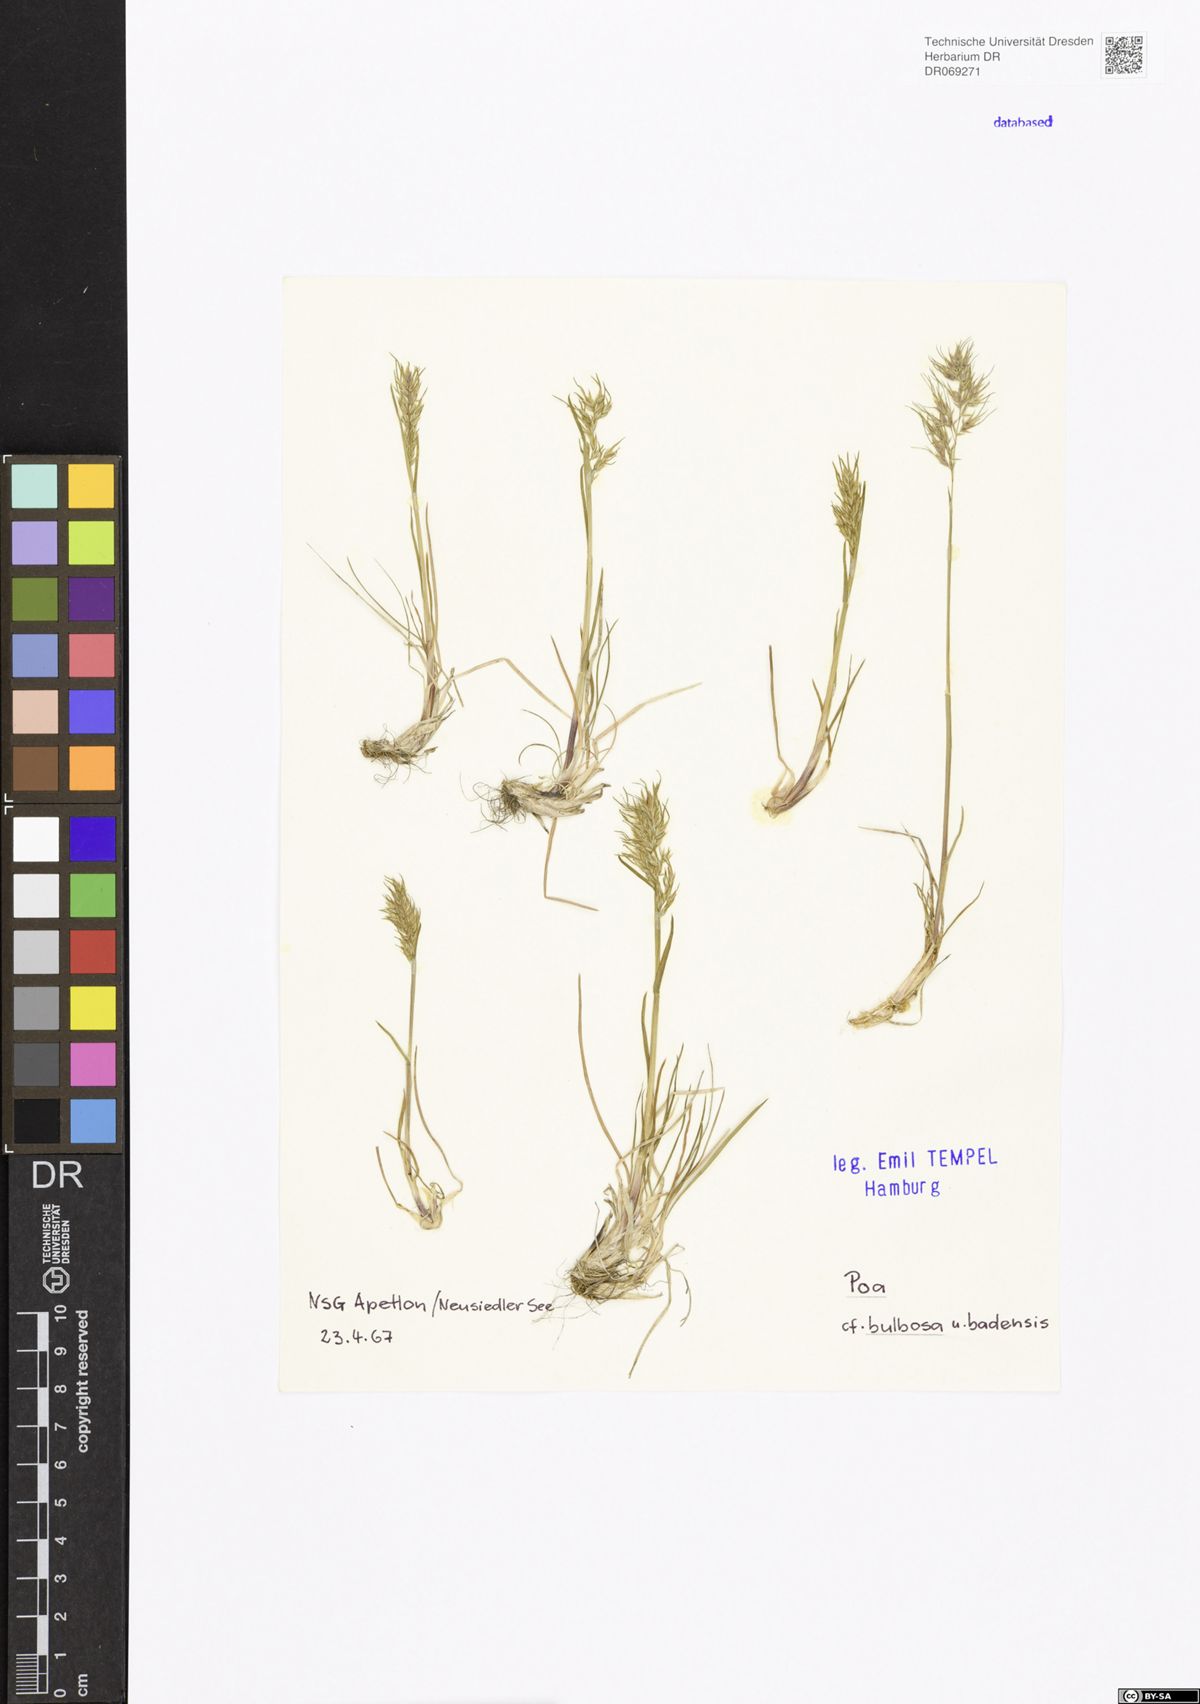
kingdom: Plantae
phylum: Tracheophyta
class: Liliopsida
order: Poales
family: Poaceae
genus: Poa
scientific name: Poa bulbosa
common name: Bulbous bluegrass
